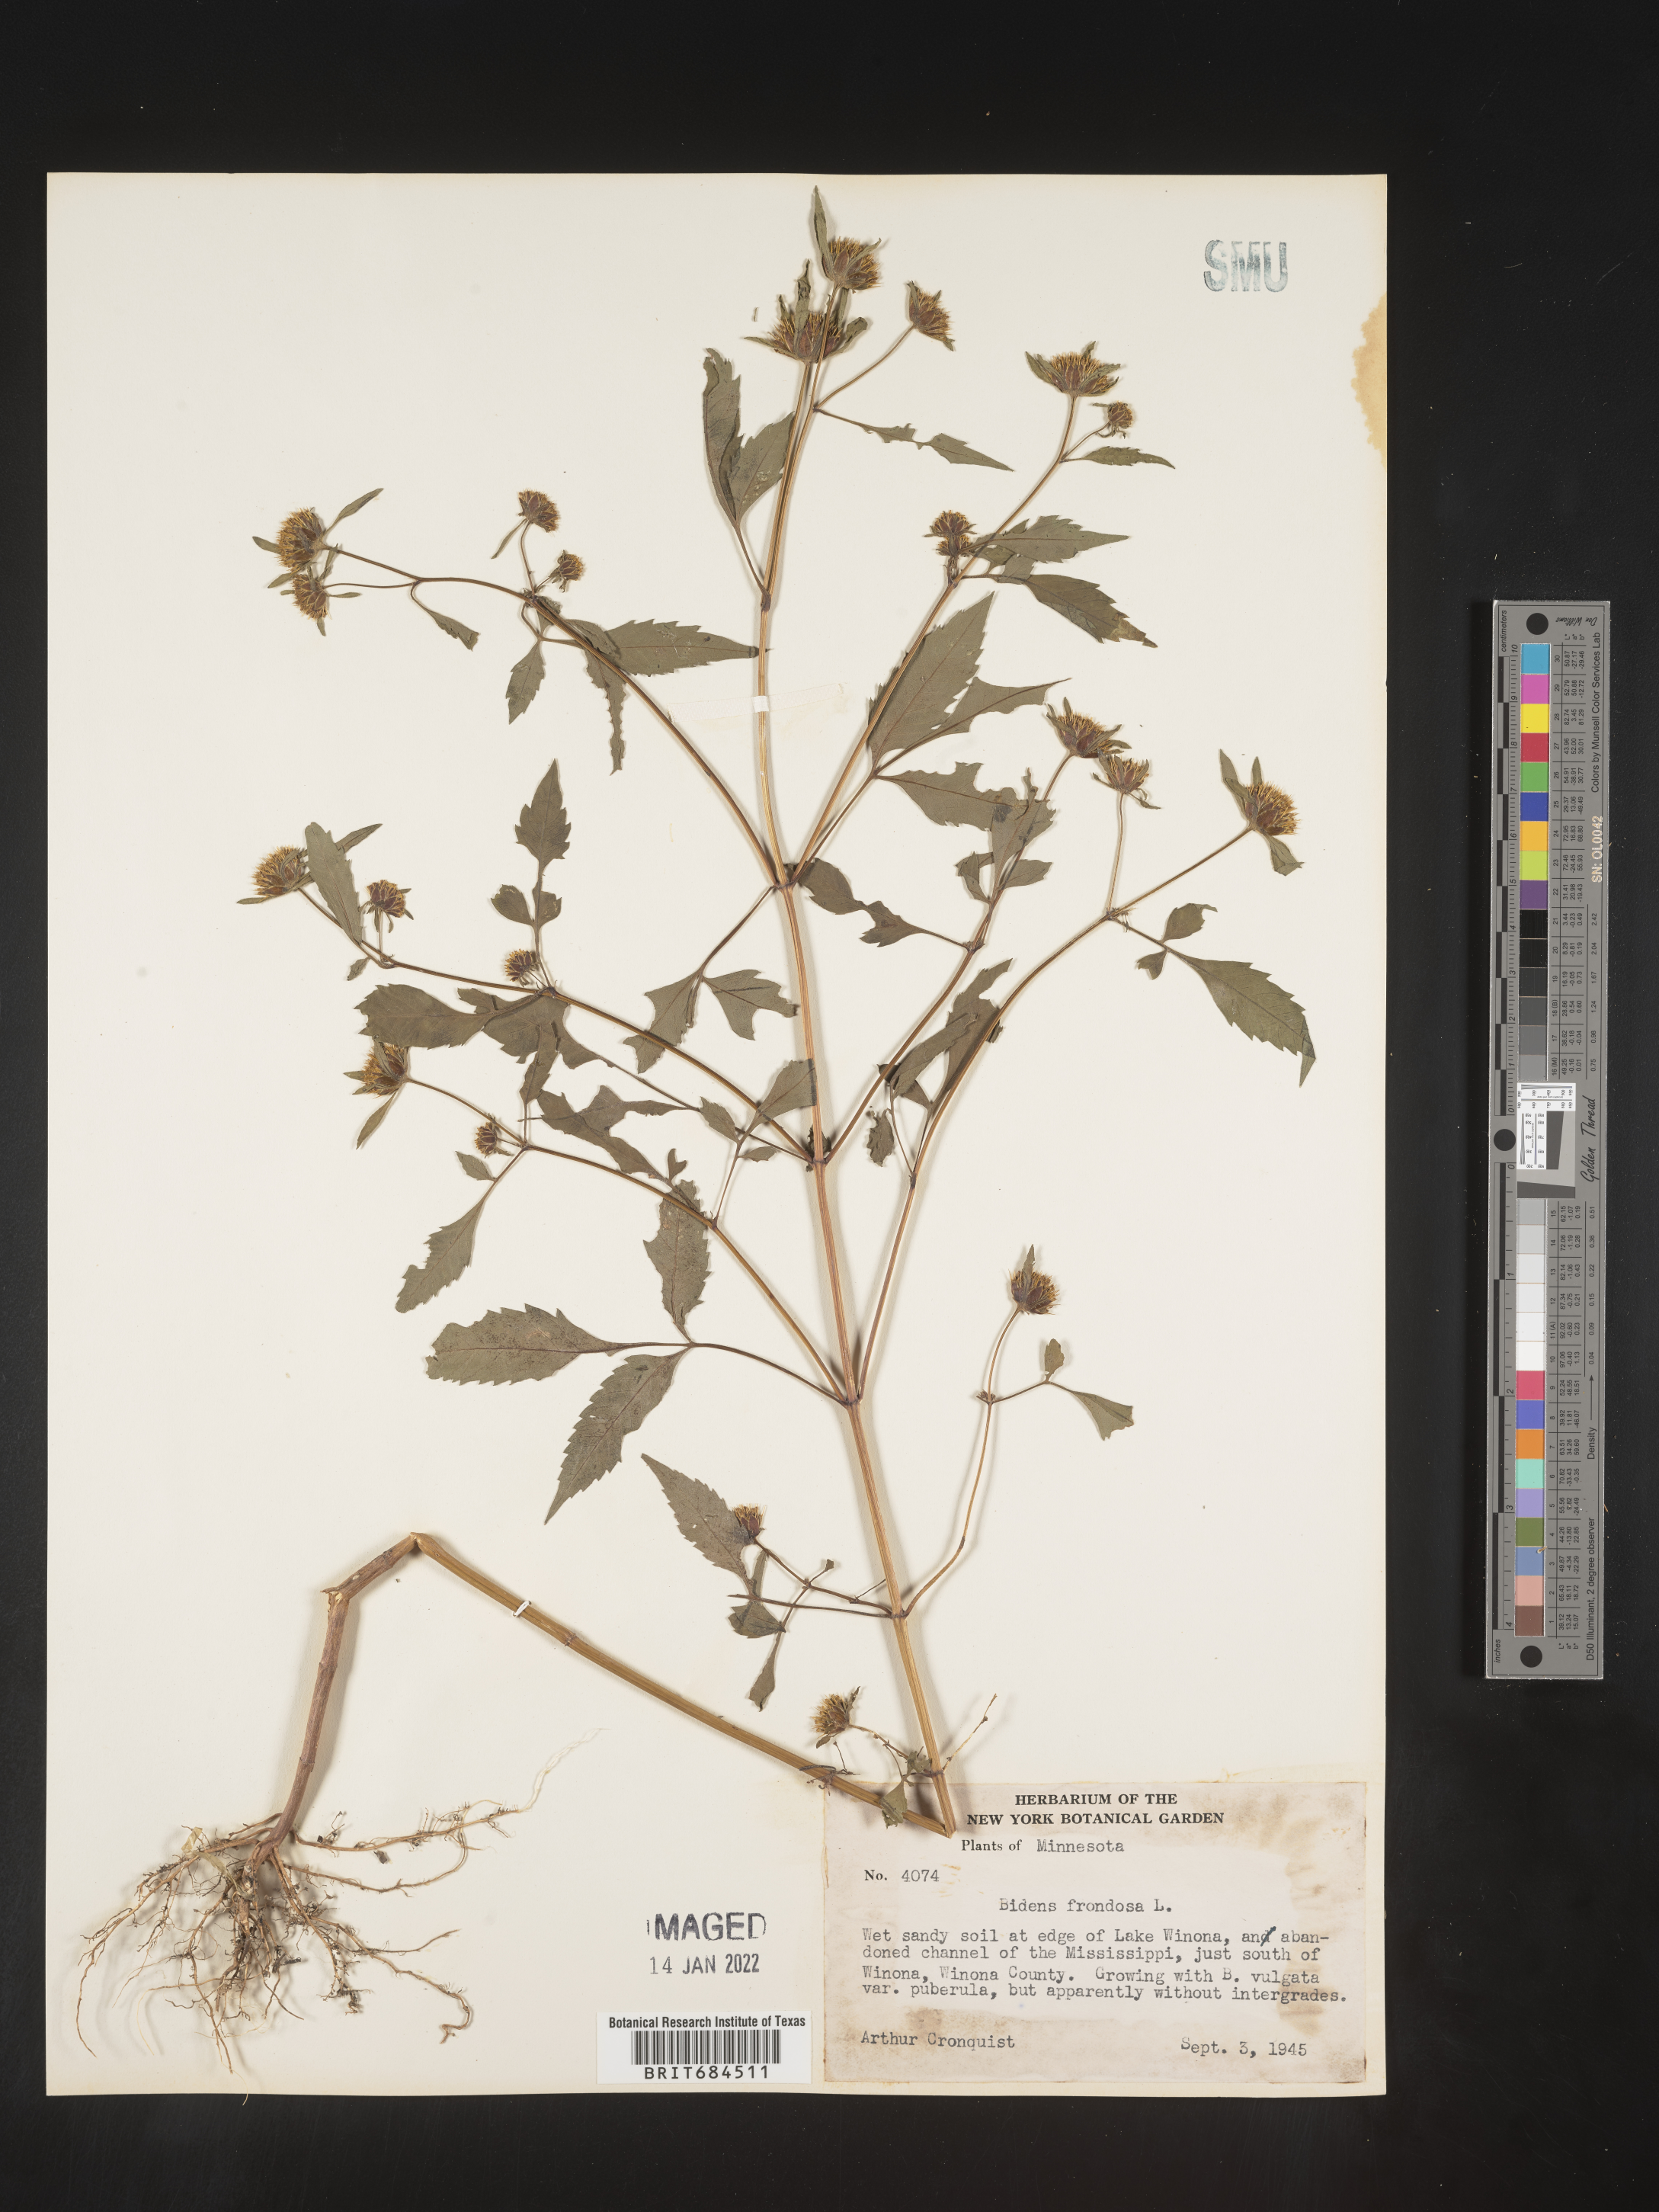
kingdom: Plantae
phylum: Tracheophyta
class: Magnoliopsida
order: Asterales
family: Asteraceae
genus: Bidens
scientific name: Bidens frondosa
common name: Beggarticks
